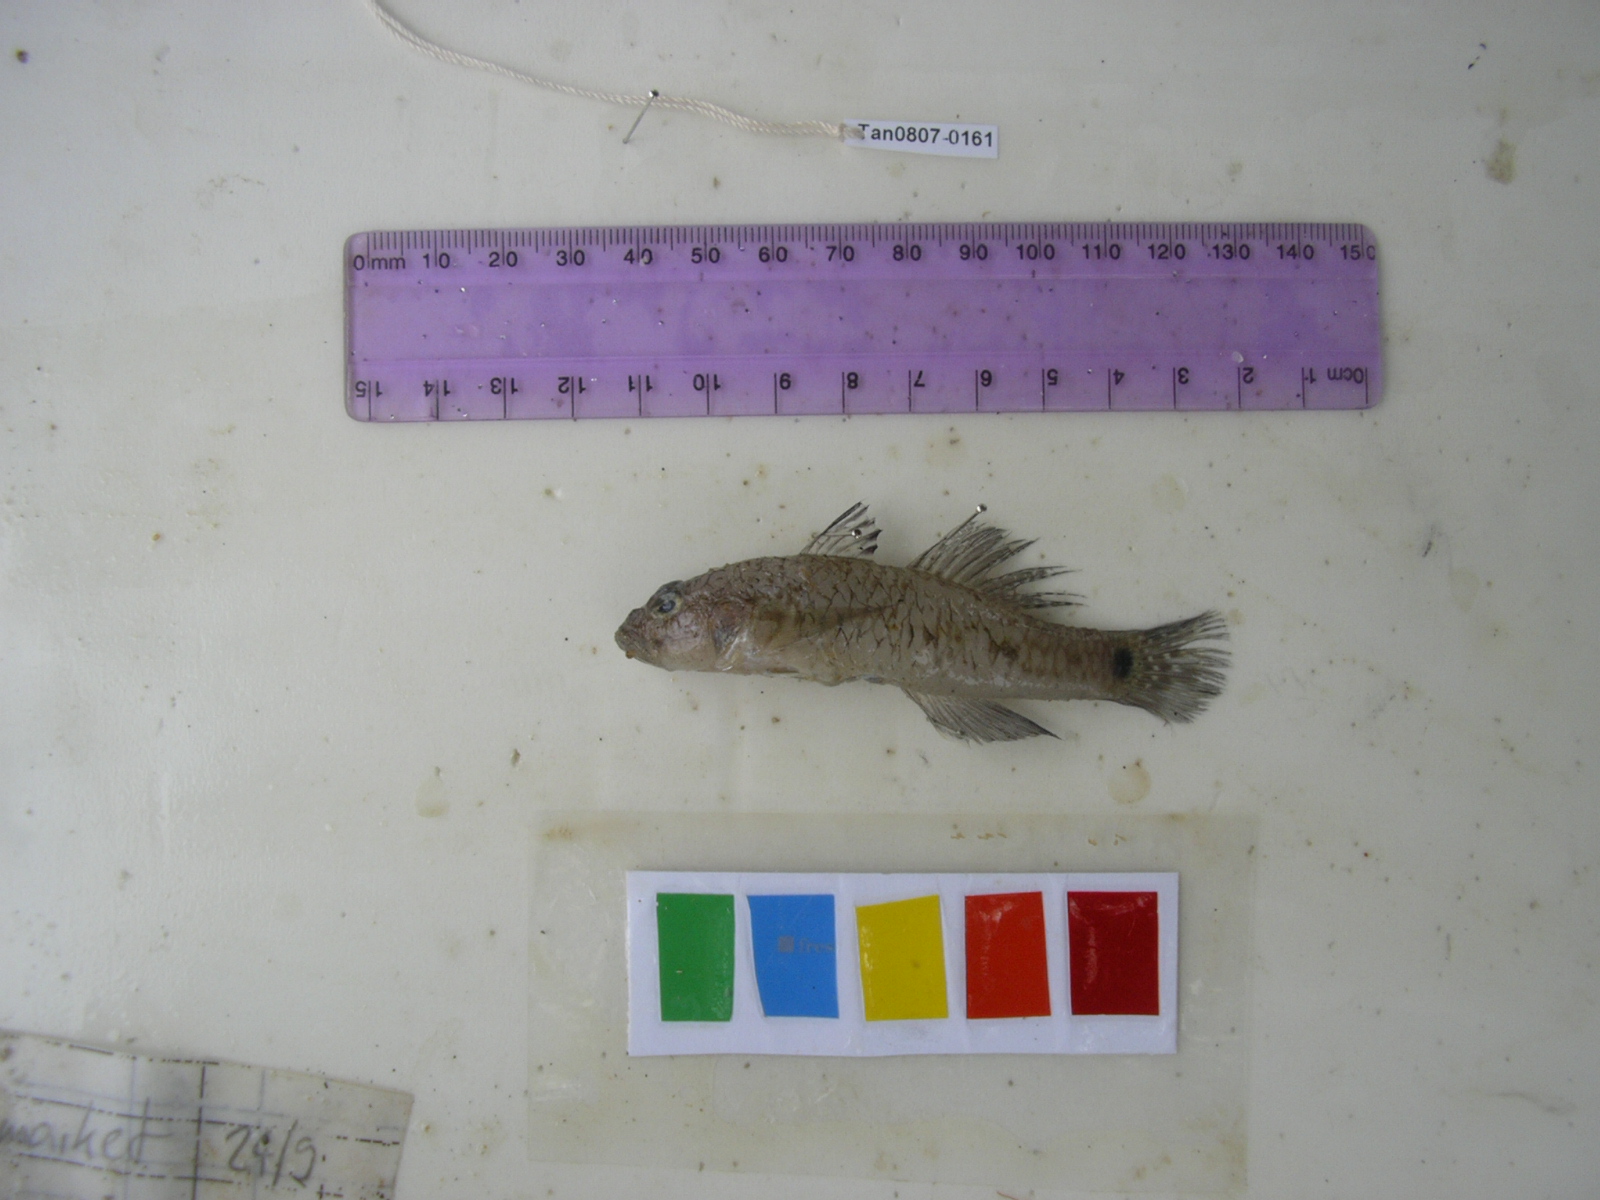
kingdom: Animalia
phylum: Chordata
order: Perciformes
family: Gobiidae
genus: Arcygobius
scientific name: Arcygobius baliurus
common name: Isthmus goby
